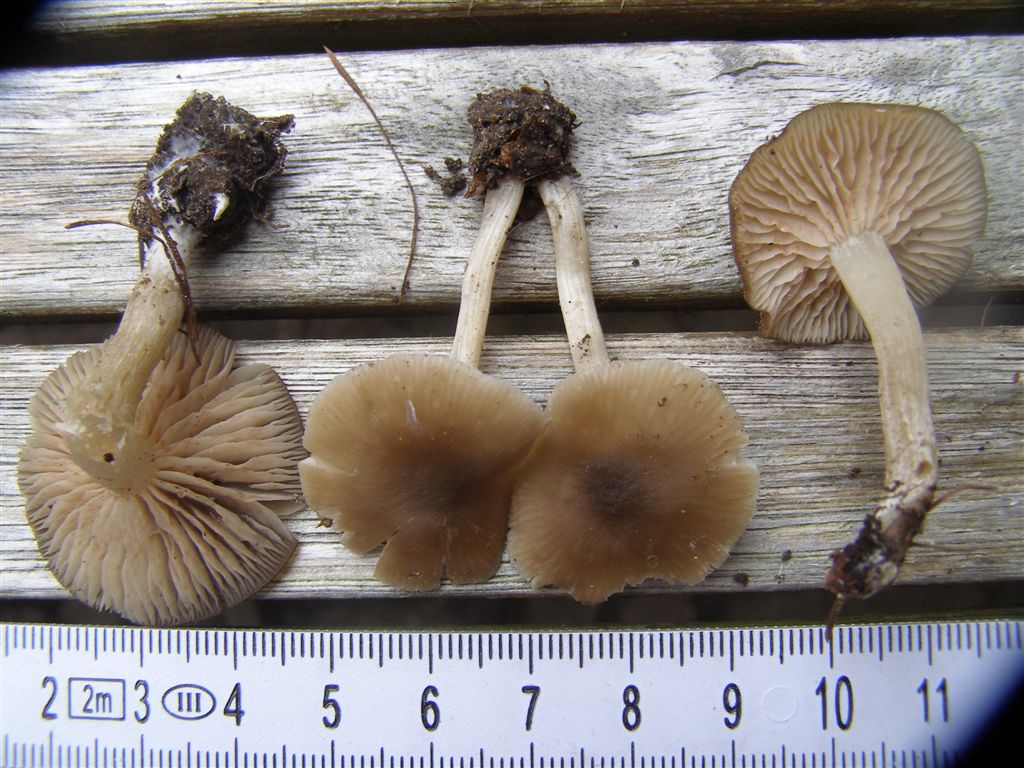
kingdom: Fungi
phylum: Basidiomycota
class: Agaricomycetes
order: Agaricales
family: Entolomataceae
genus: Entoloma
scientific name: Entoloma sordidulum
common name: smudsig rødblad
